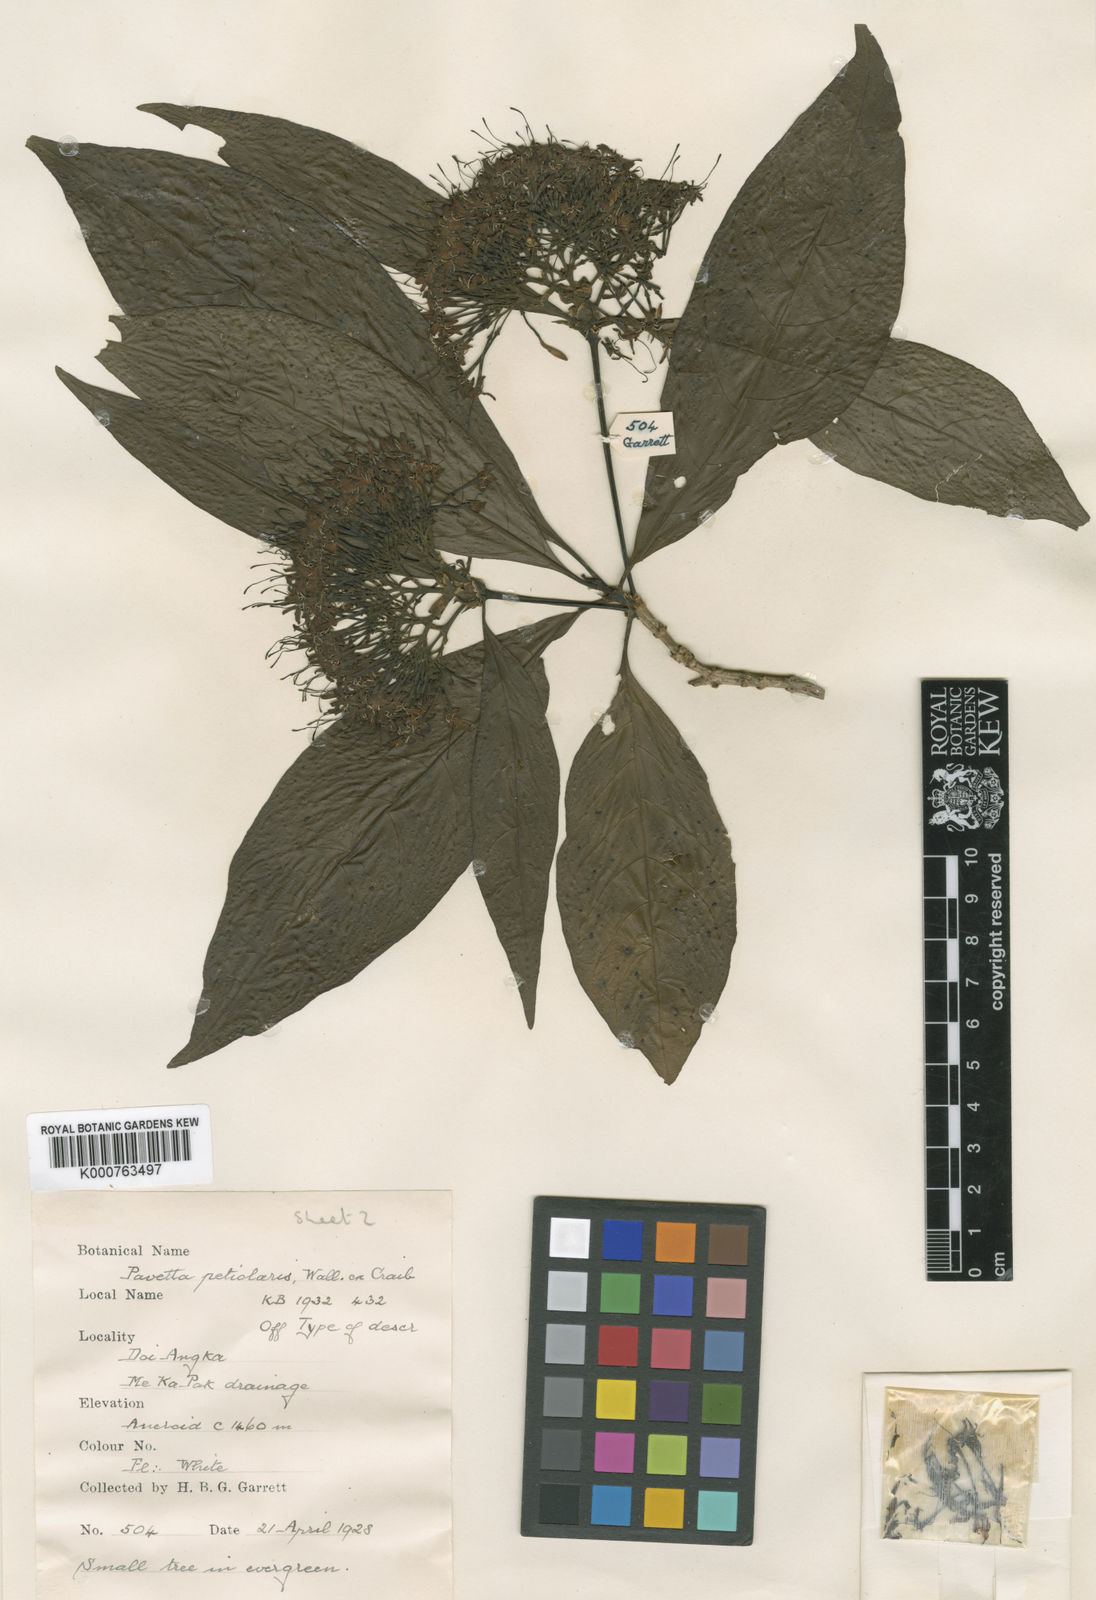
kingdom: Plantae
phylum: Tracheophyta
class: Magnoliopsida
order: Gentianales
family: Rubiaceae
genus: Pavetta
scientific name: Pavetta
